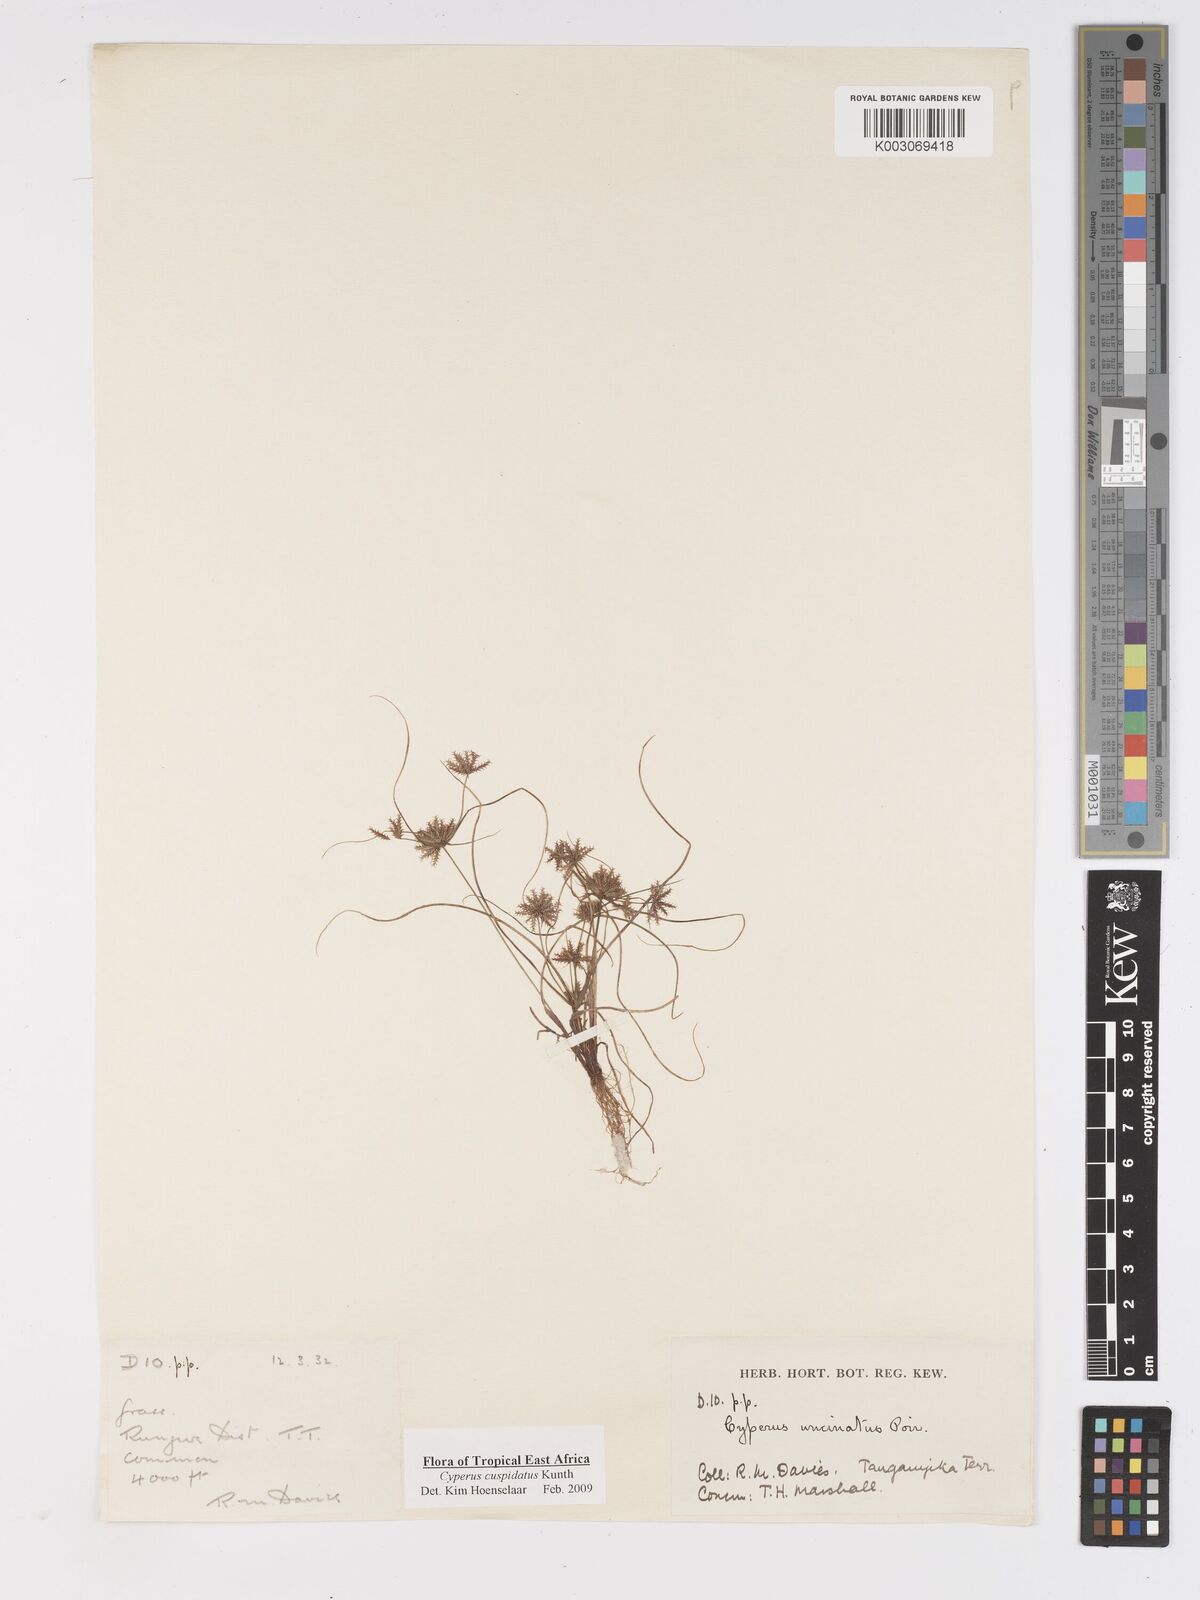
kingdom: Plantae
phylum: Tracheophyta
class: Liliopsida
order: Poales
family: Cyperaceae
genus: Cyperus
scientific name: Cyperus cuspidatus
